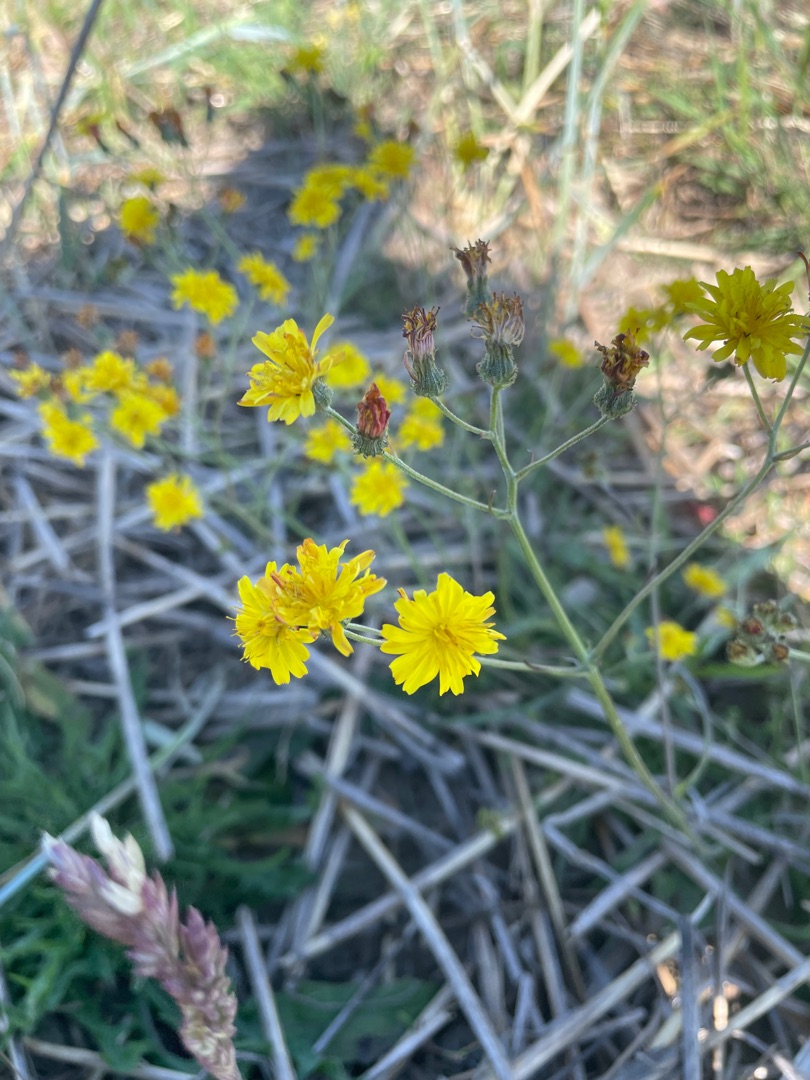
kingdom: Plantae
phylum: Tracheophyta
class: Magnoliopsida
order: Asterales
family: Asteraceae
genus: Crepis
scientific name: Crepis capillaris
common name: Grøn høgeskæg
